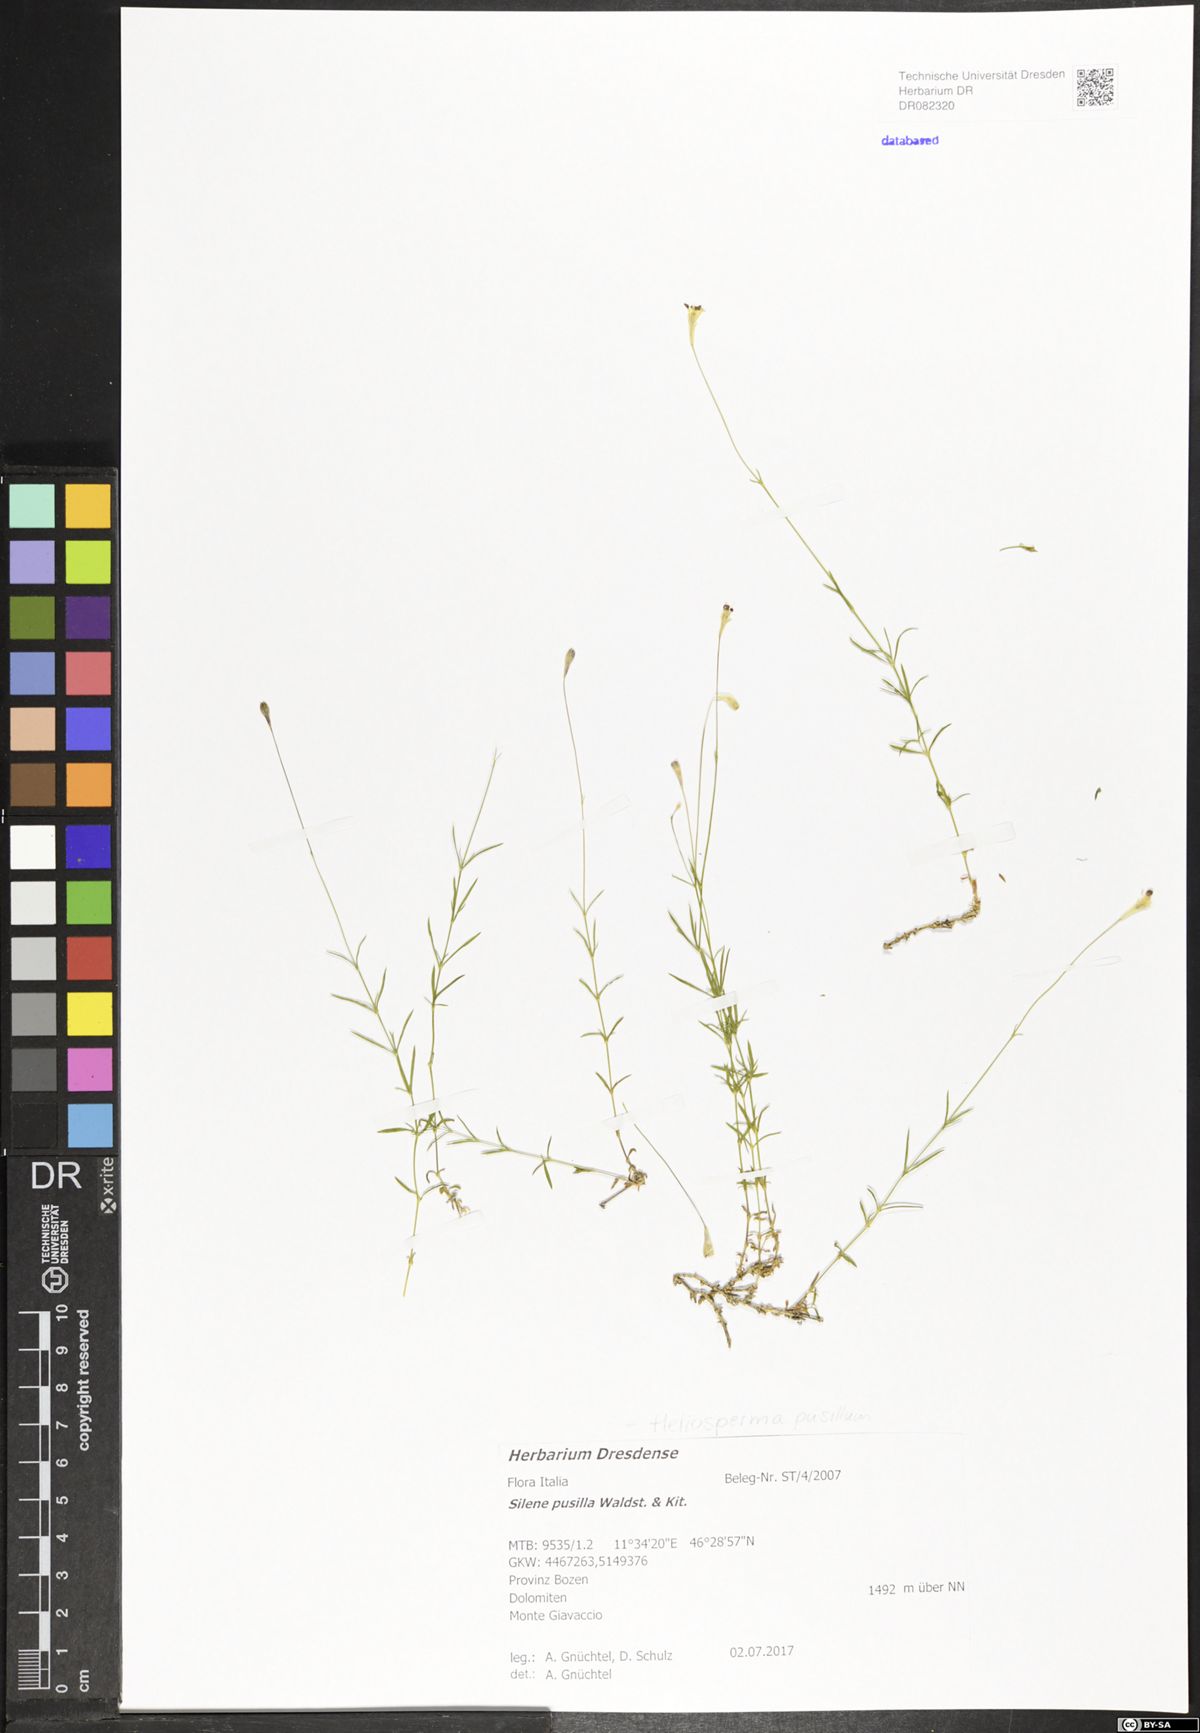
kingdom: Plantae
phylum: Tracheophyta
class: Magnoliopsida
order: Caryophyllales
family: Caryophyllaceae
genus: Heliosperma
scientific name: Heliosperma pusillum
